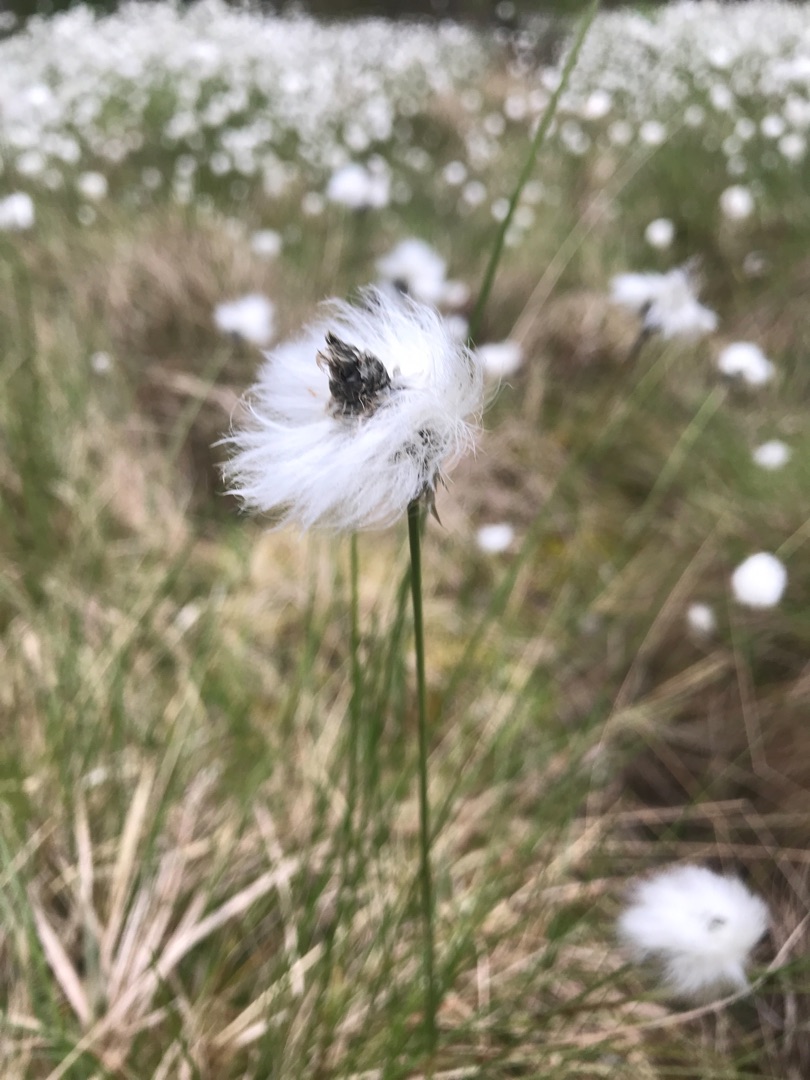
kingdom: Plantae
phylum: Tracheophyta
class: Liliopsida
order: Poales
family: Cyperaceae
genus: Eriophorum
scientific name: Eriophorum vaginatum
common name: Tue-kæruld
